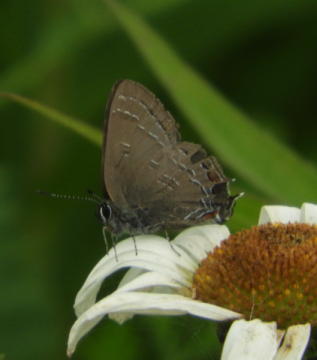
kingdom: Animalia
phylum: Arthropoda
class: Insecta
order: Lepidoptera
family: Lycaenidae
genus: Satyrium
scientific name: Satyrium calanus
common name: Banded Hairstreak
